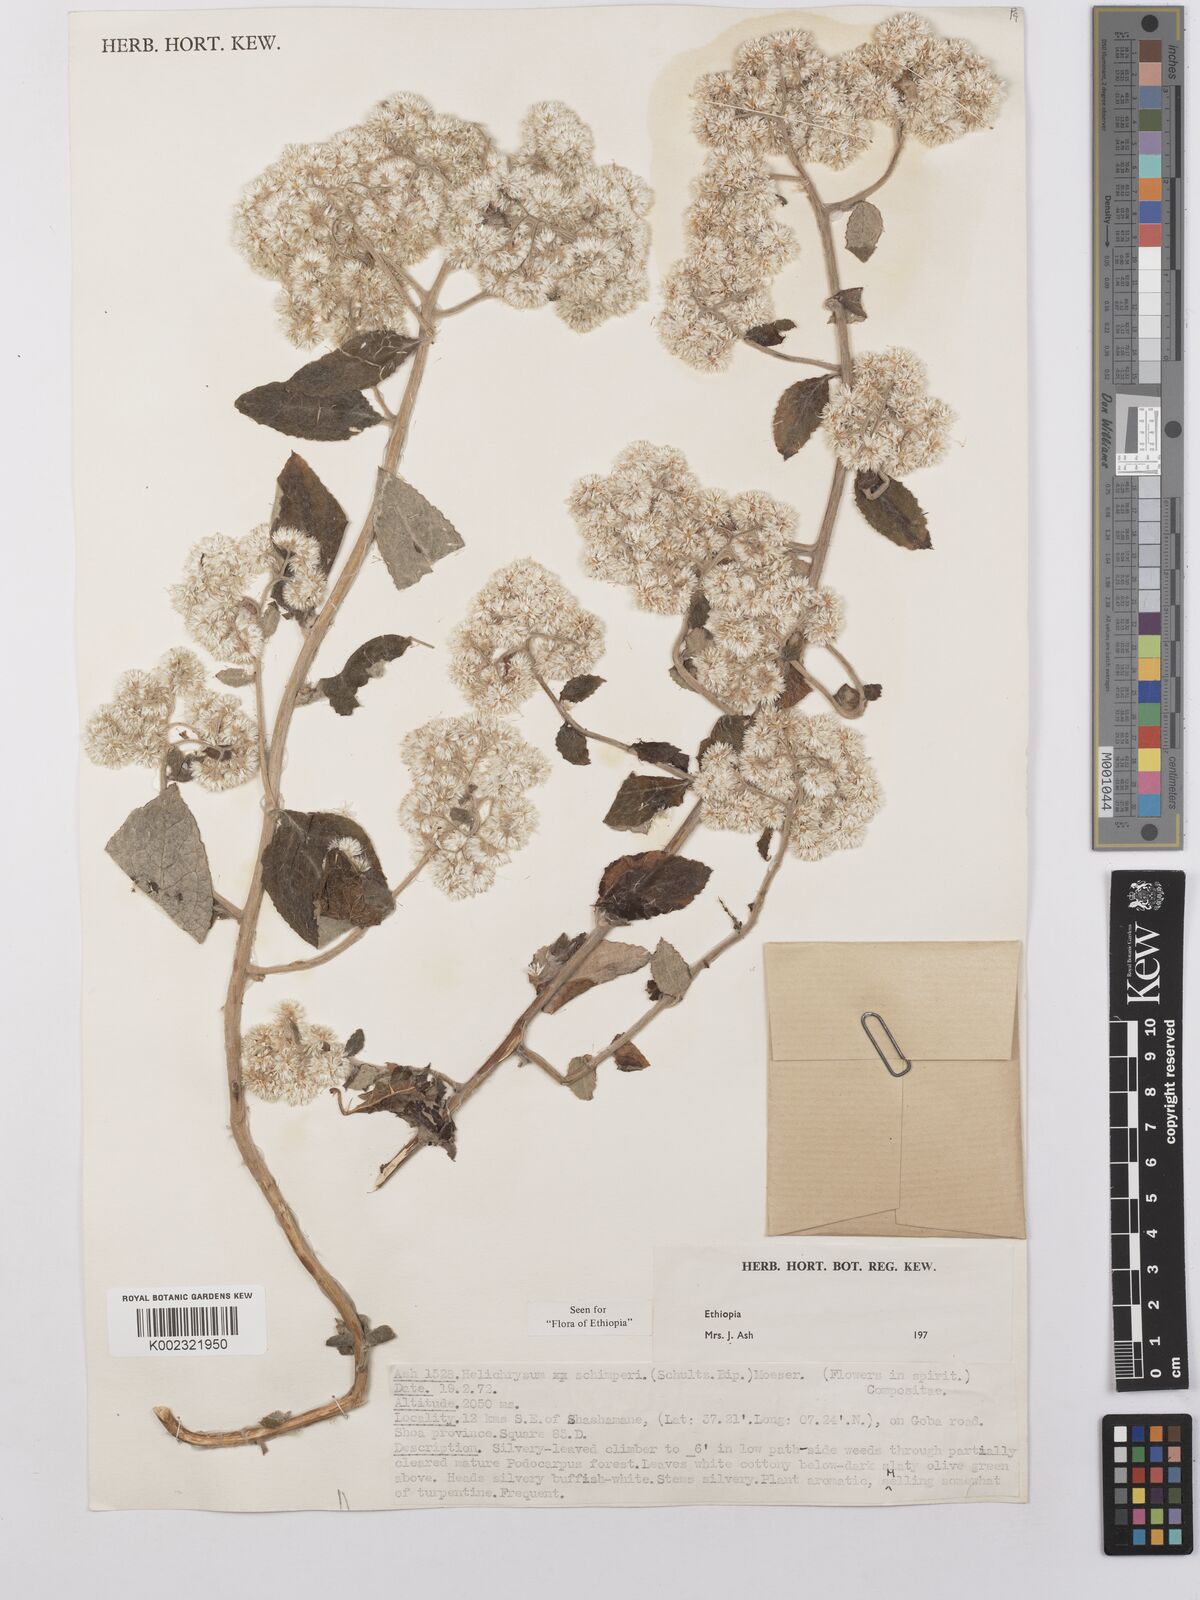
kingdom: Plantae
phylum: Tracheophyta
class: Magnoliopsida
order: Asterales
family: Asteraceae
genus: Helichrysum
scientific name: Helichrysum schimperi
